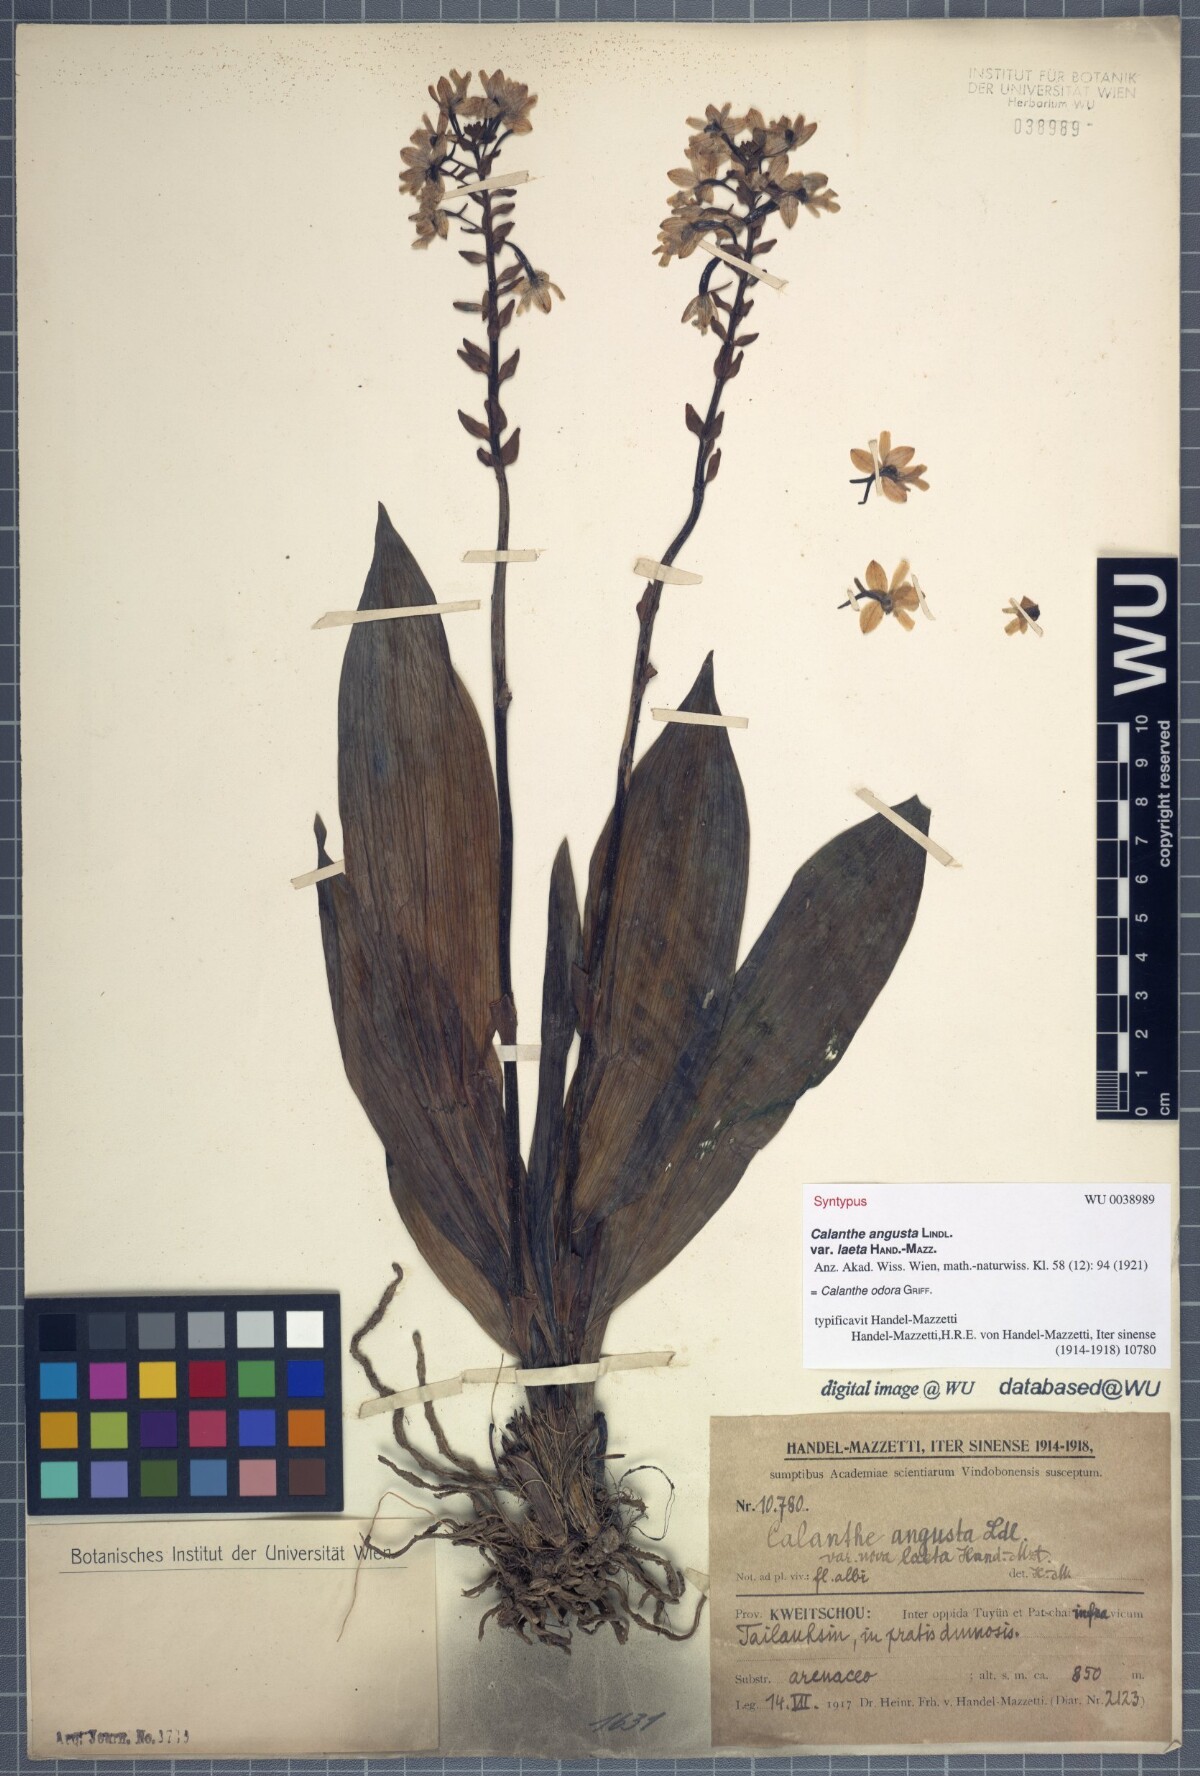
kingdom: Plantae
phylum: Tracheophyta
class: Liliopsida
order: Asparagales
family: Orchidaceae
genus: Calanthe
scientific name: Calanthe odora
